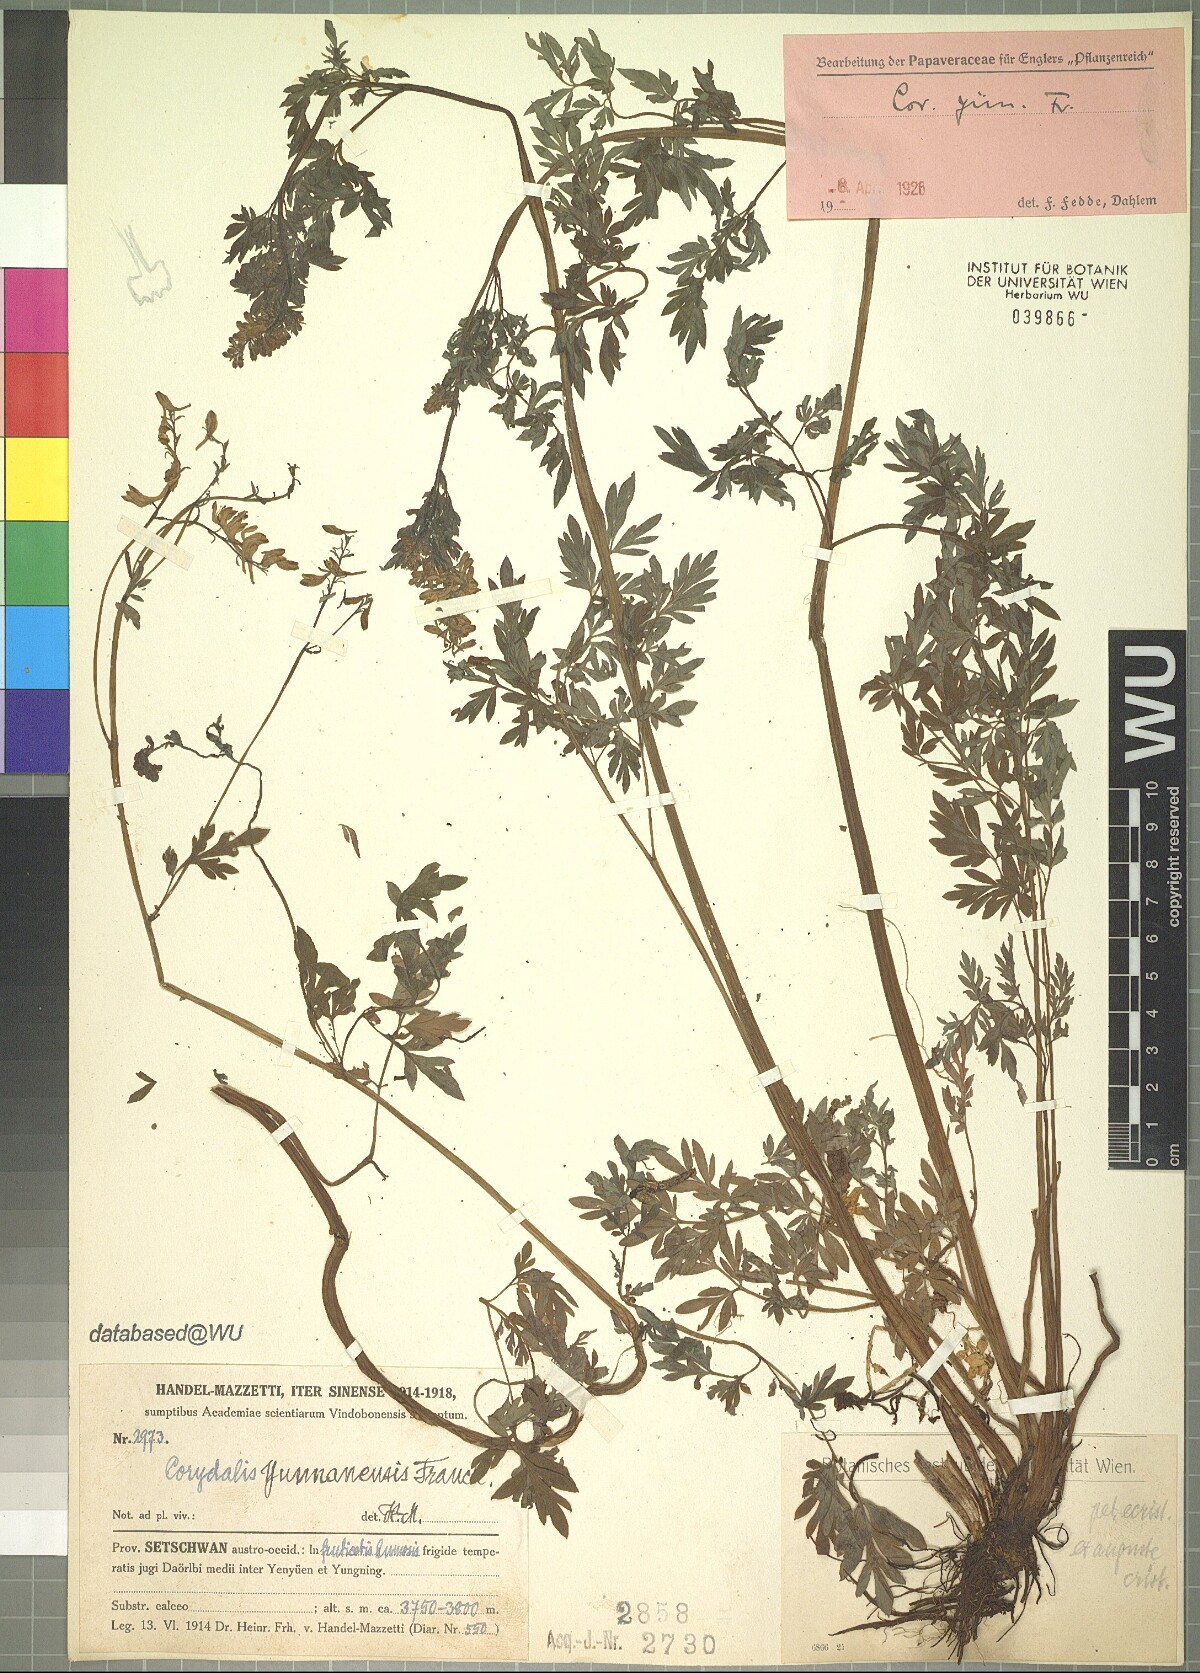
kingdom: Plantae
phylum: Tracheophyta
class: Magnoliopsida
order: Ranunculales
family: Papaveraceae
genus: Corydalis
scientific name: Corydalis yunnanensis
